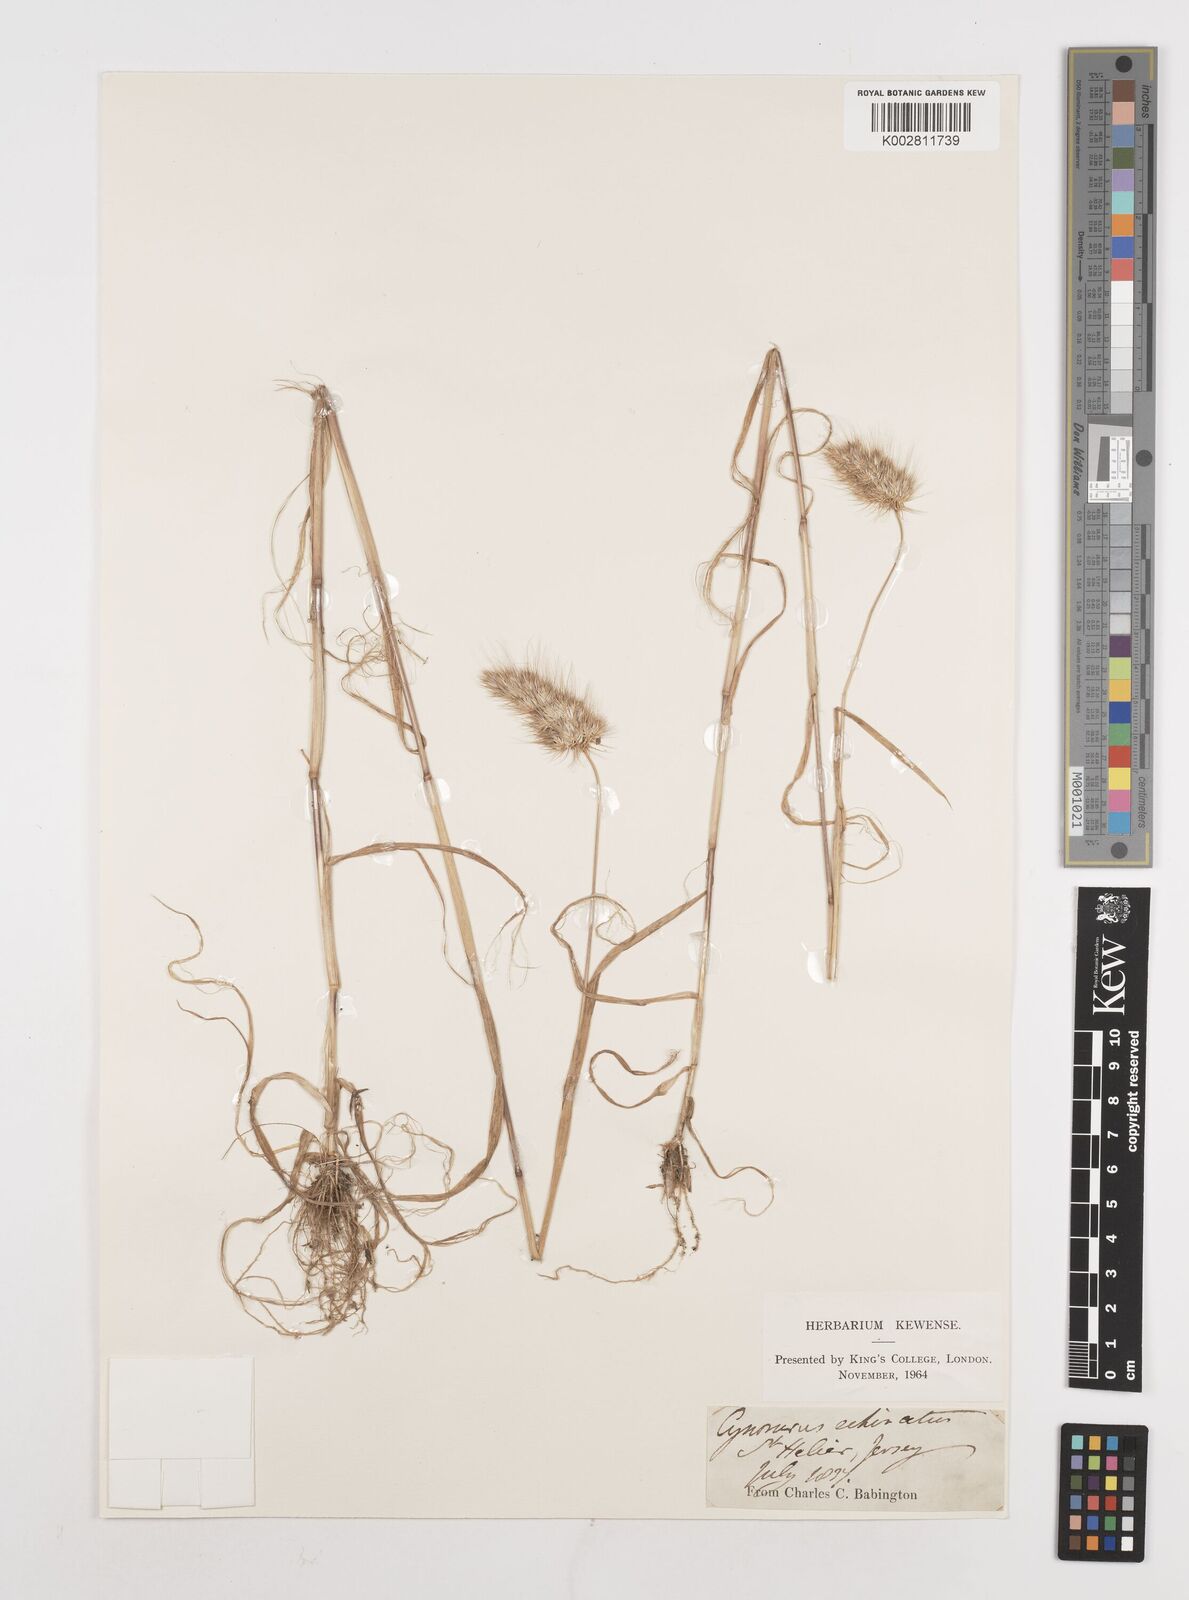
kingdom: Plantae
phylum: Tracheophyta
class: Liliopsida
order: Poales
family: Poaceae
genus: Cynosurus
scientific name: Cynosurus echinatus
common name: Rough dog's-tail
